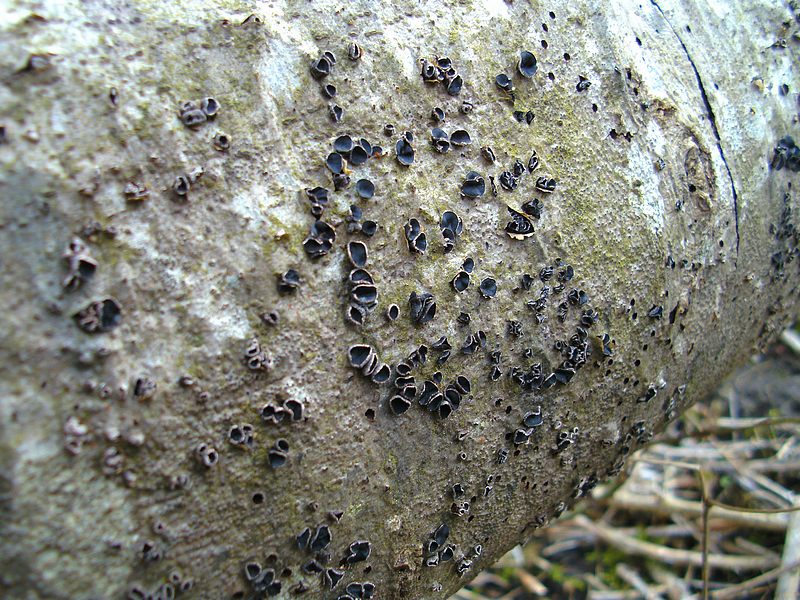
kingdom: Fungi
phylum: Ascomycota
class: Leotiomycetes
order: Helotiales
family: Sclerotiniaceae
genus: Sclerencoelia
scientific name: Sclerencoelia fraxinicola
